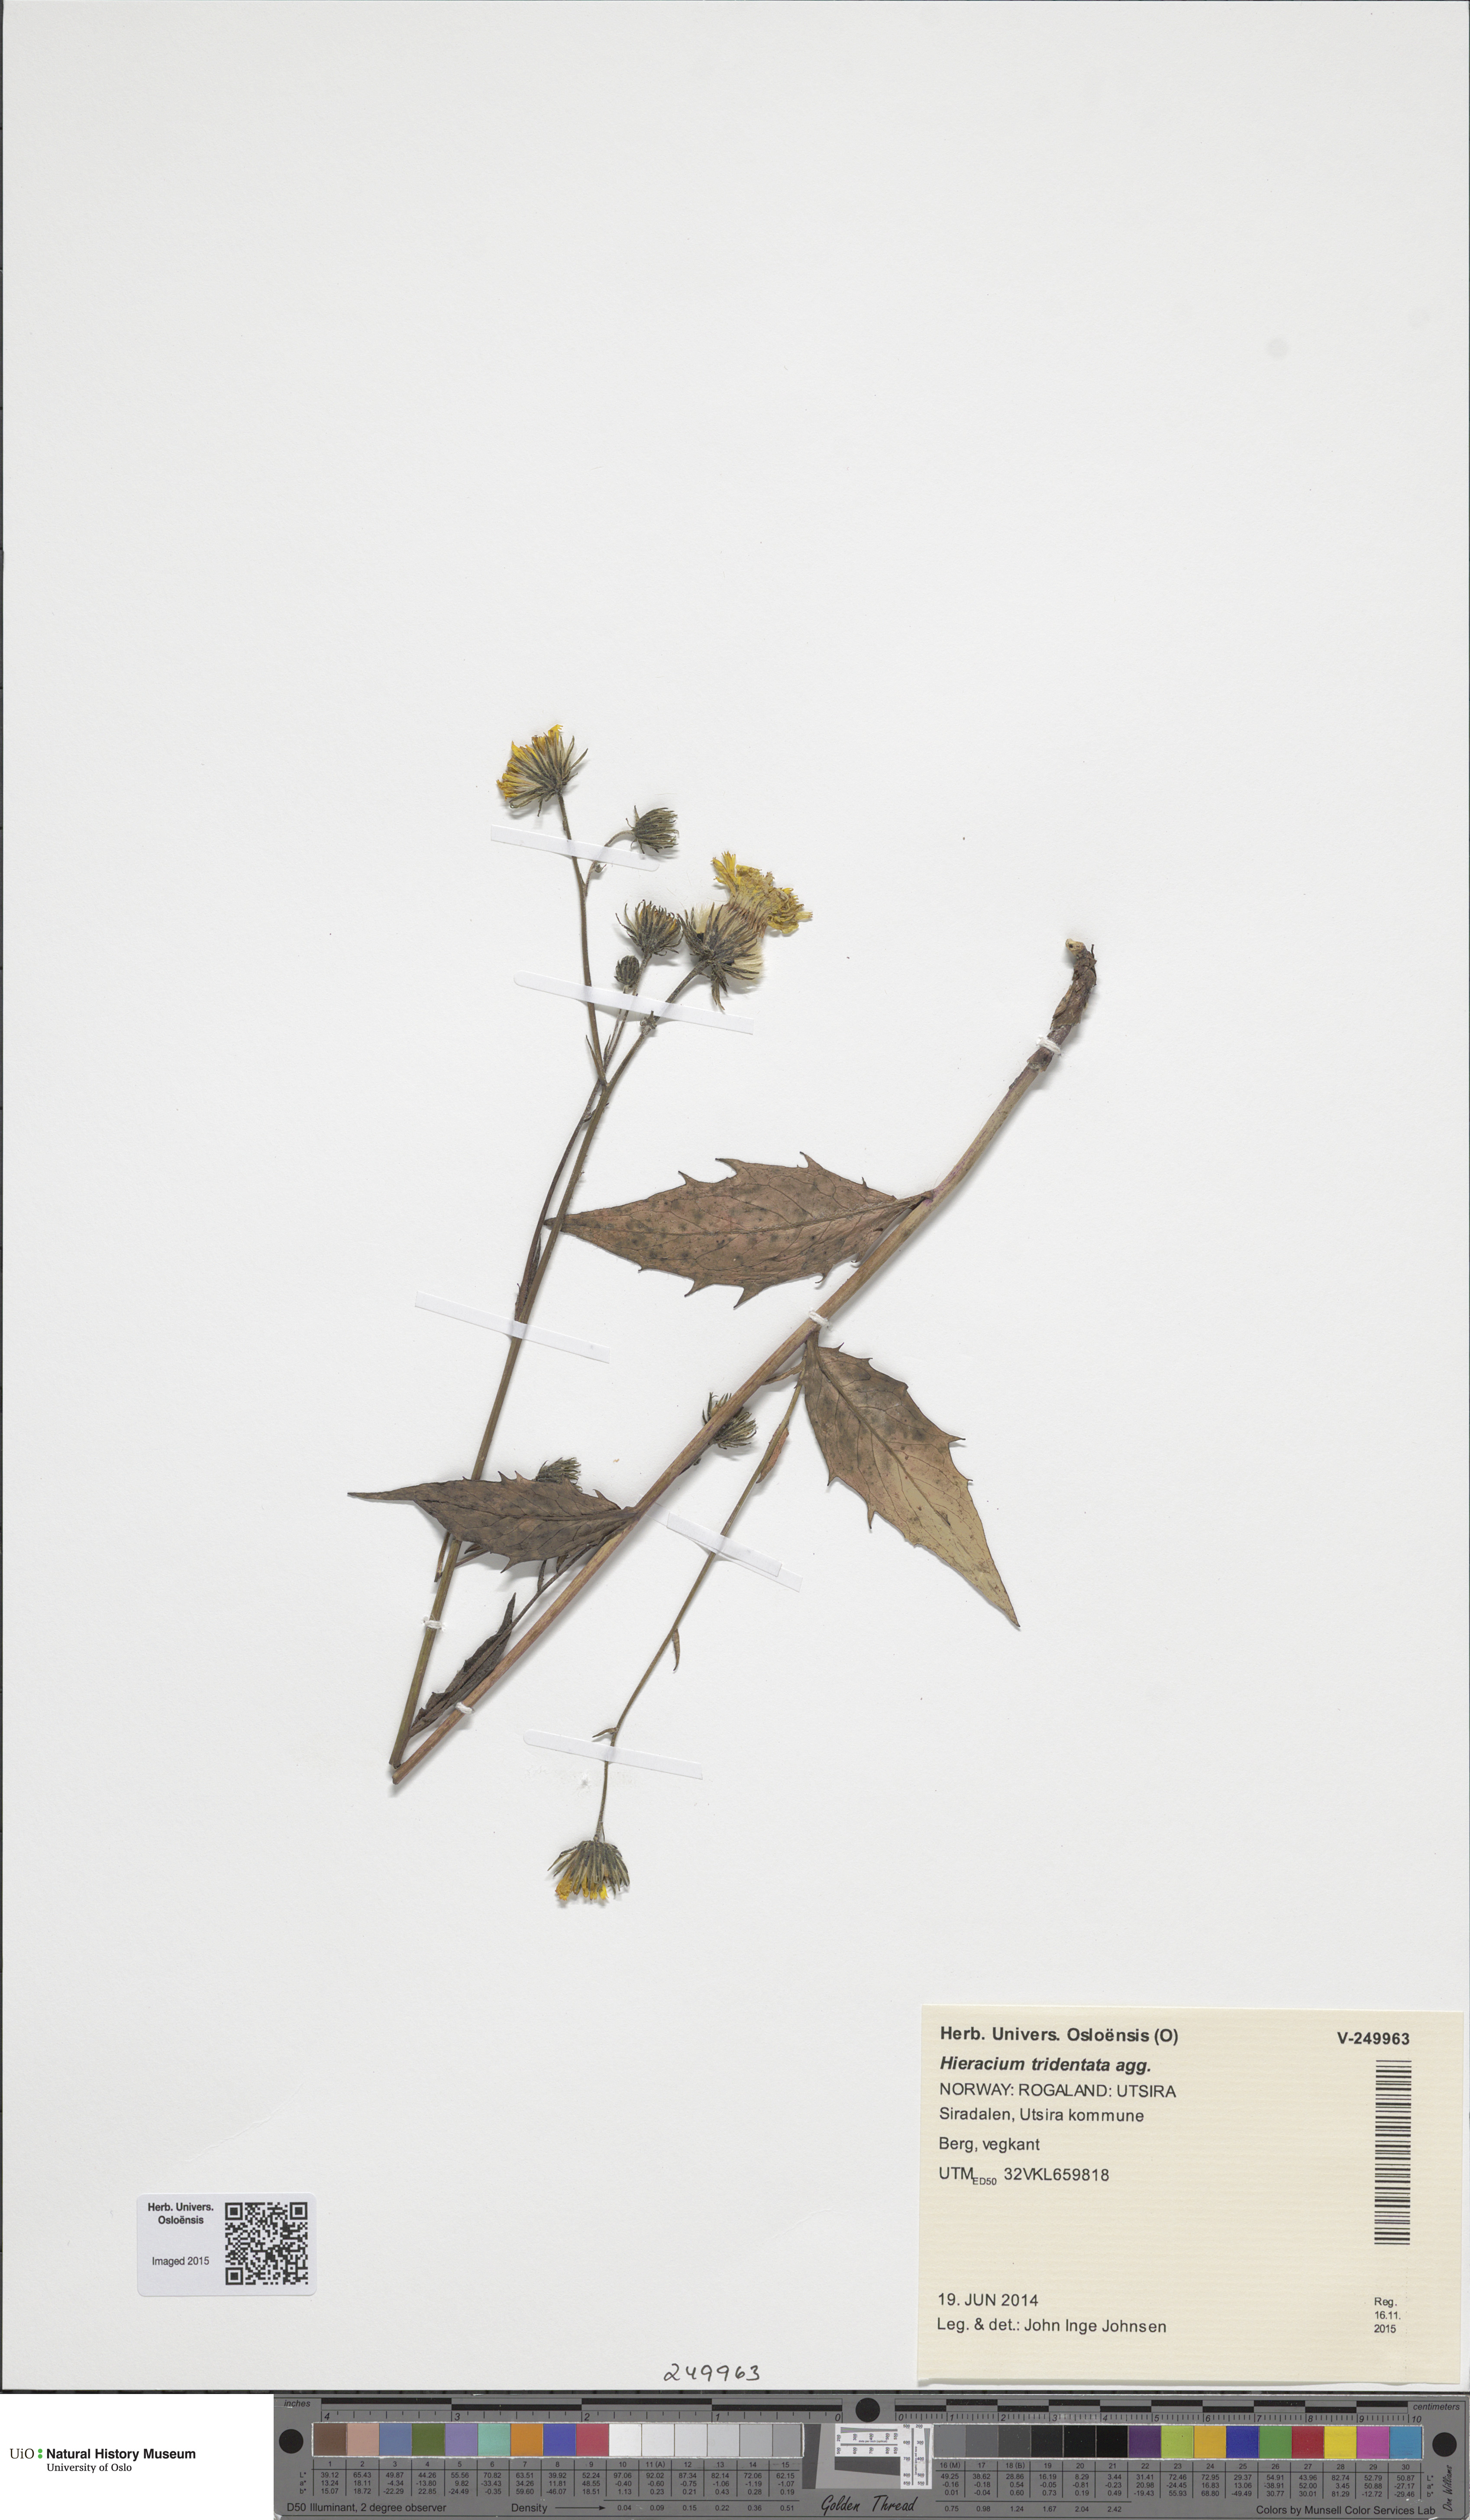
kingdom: Plantae
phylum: Tracheophyta
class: Magnoliopsida
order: Asterales
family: Asteraceae
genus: Hieracium
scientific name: Hieracium tridentatum
